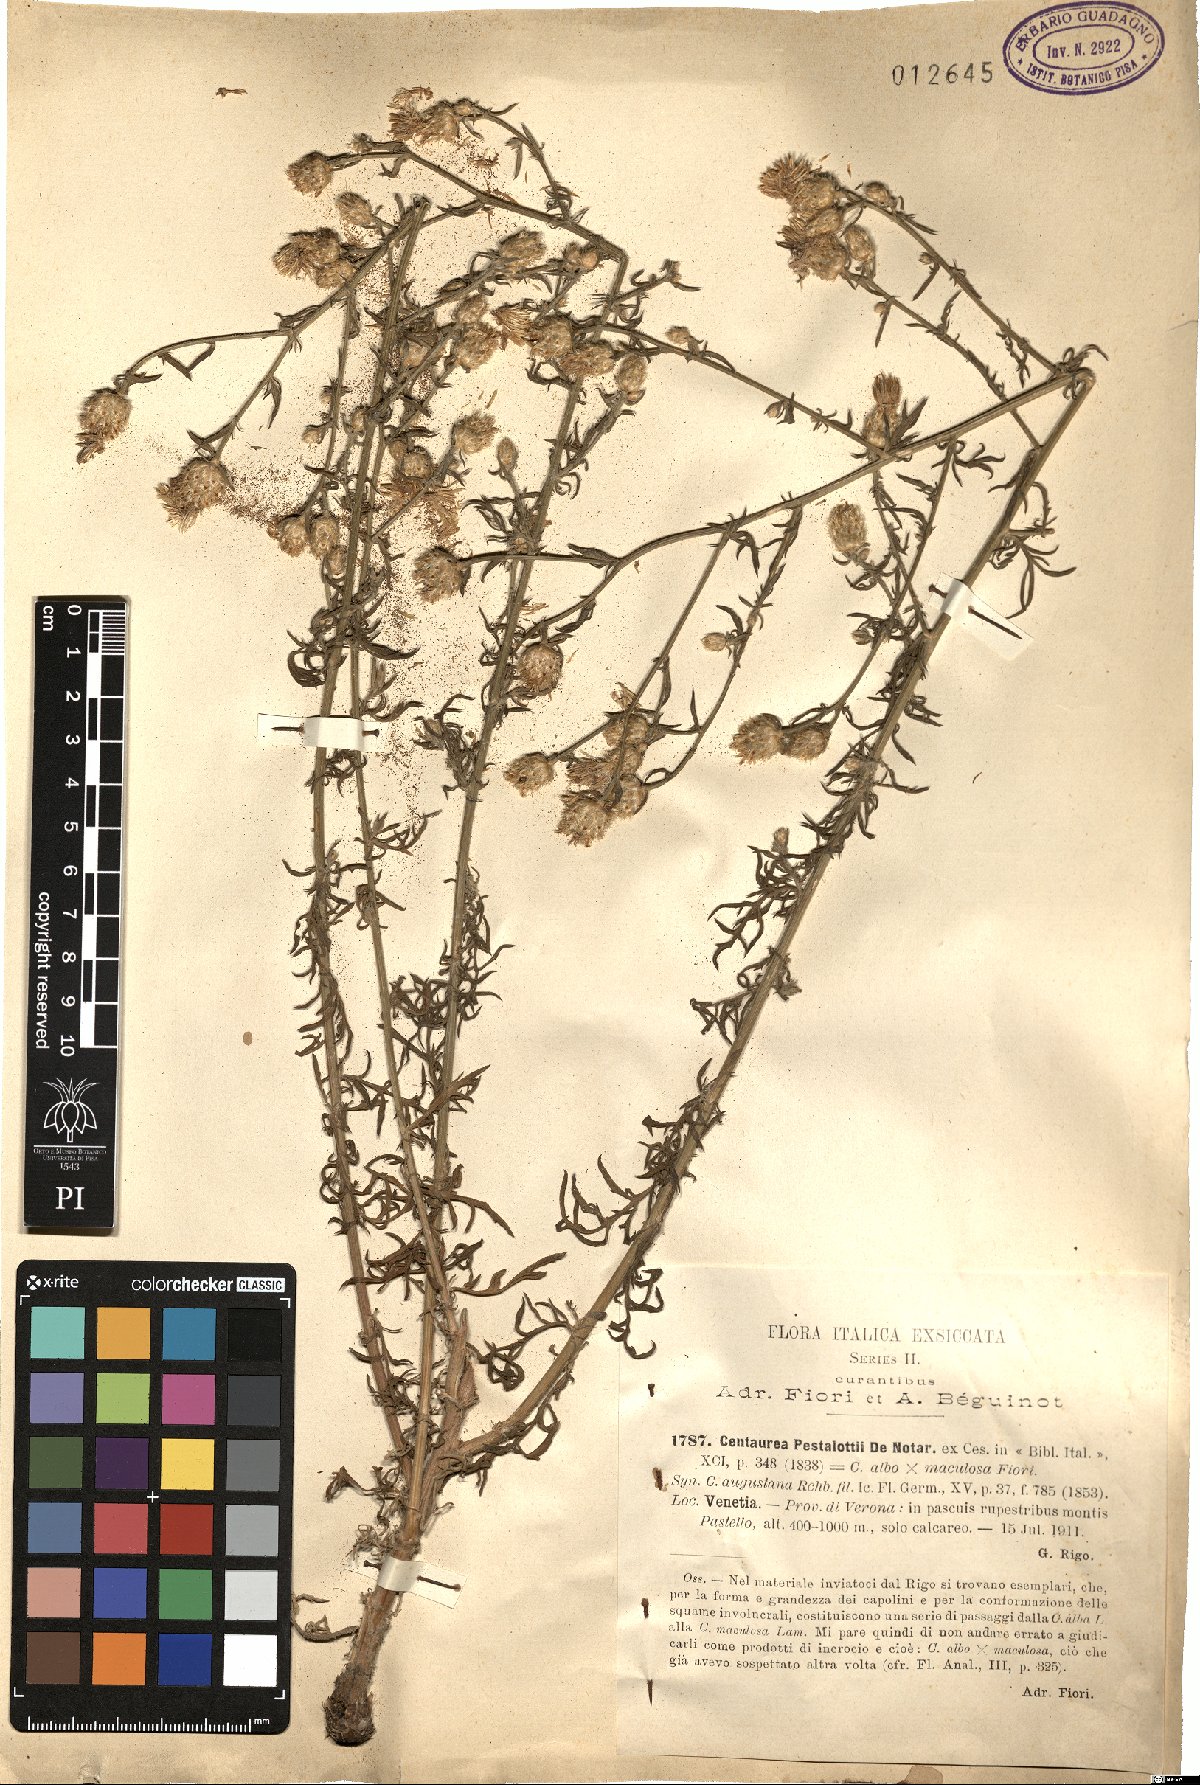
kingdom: Plantae
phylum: Tracheophyta
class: Magnoliopsida
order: Asterales
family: Asteraceae
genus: Centaurea
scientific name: Centaurea pestalotii
